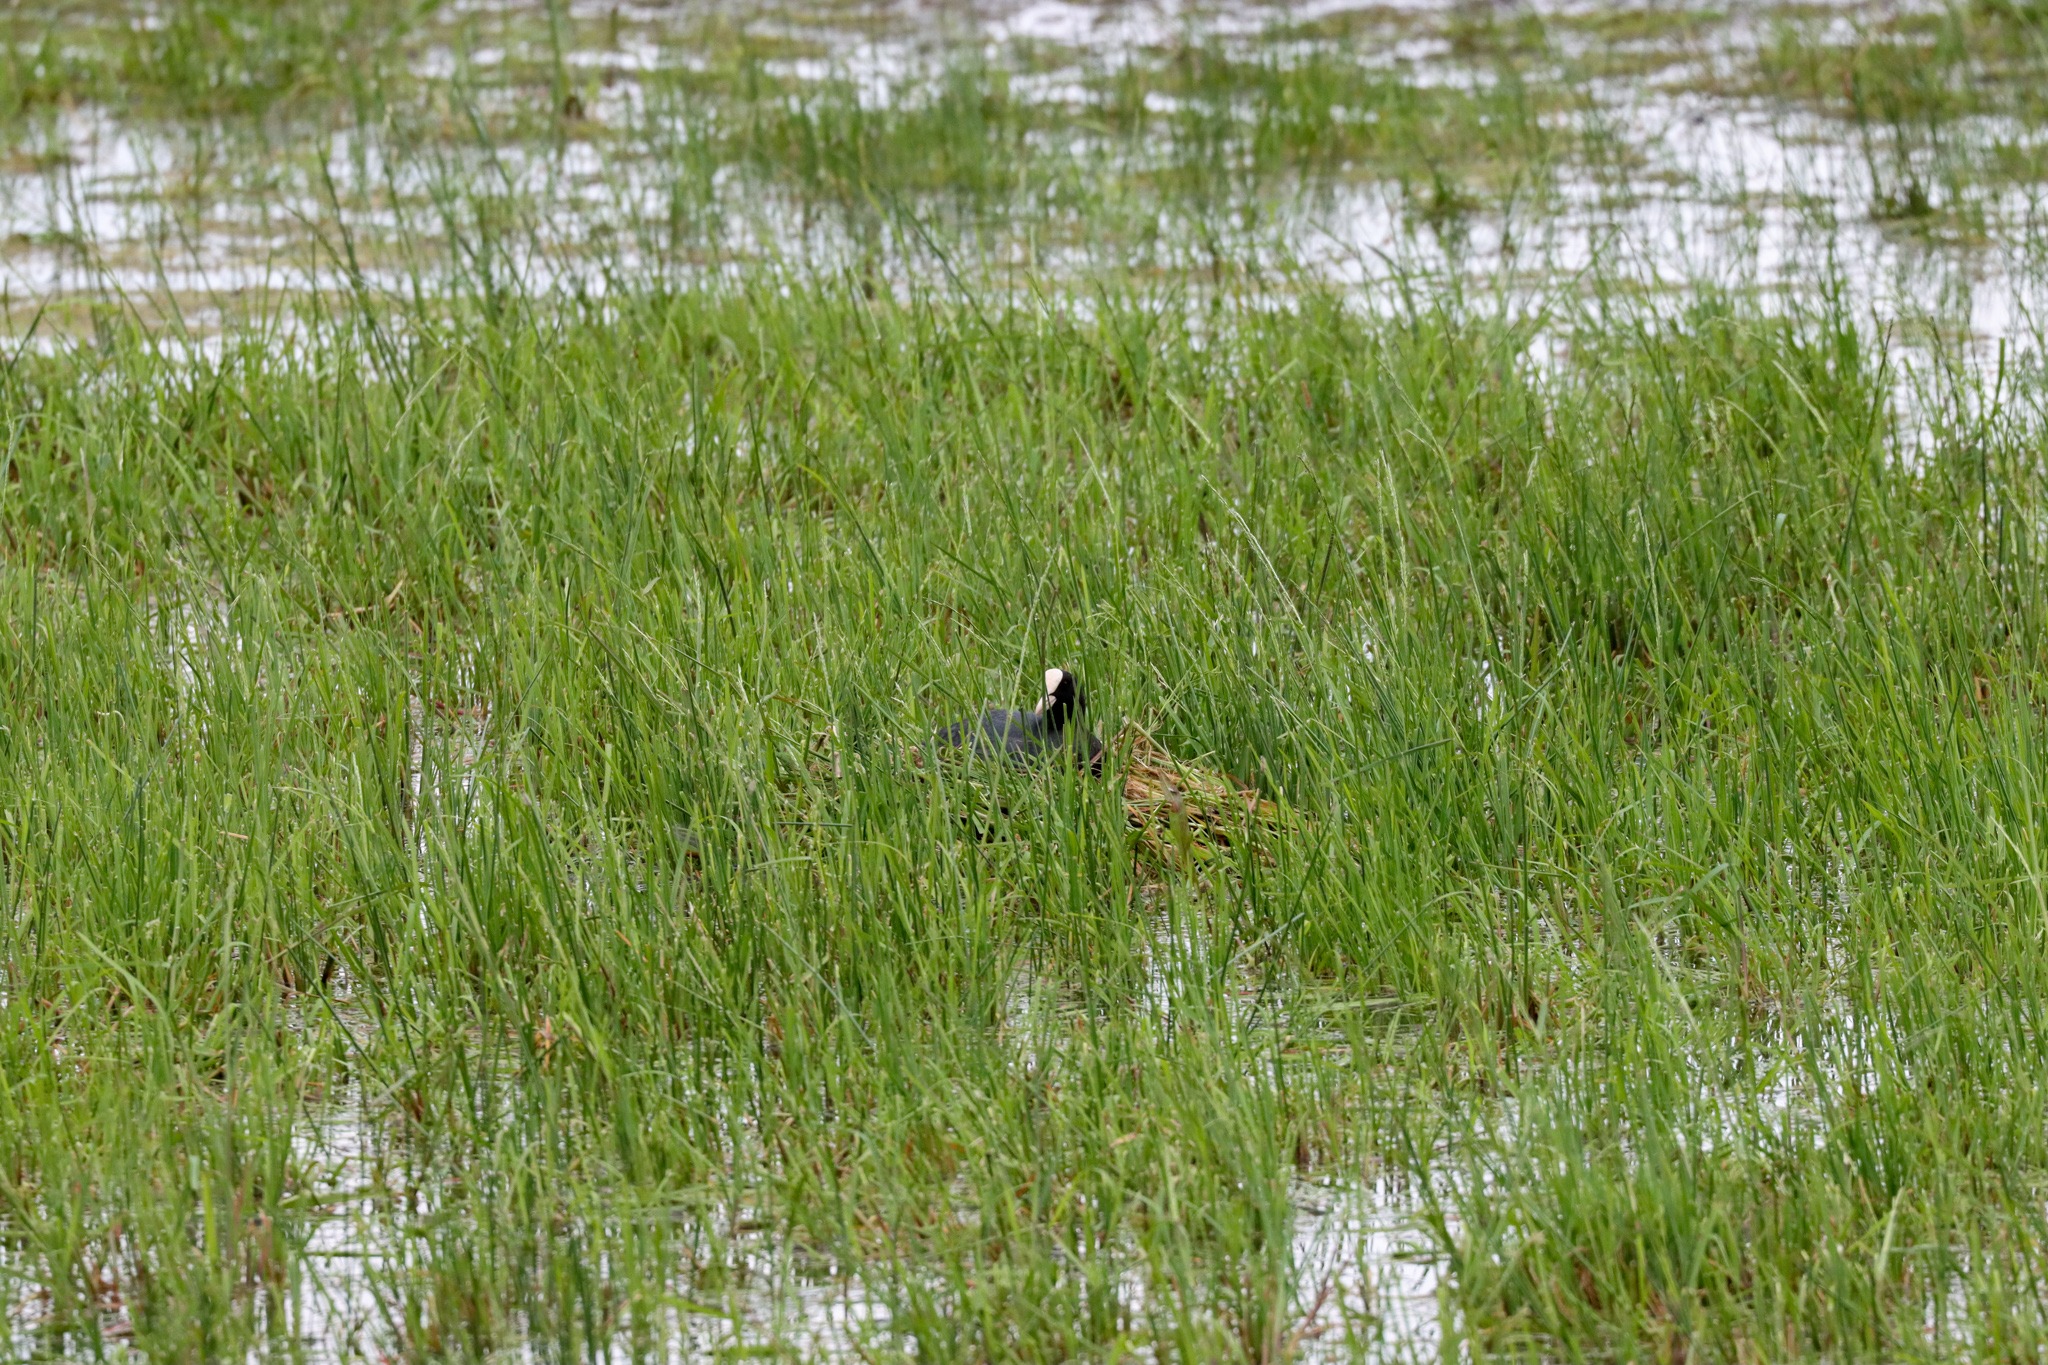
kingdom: Animalia
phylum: Chordata
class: Aves
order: Gruiformes
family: Rallidae
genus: Fulica
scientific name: Fulica atra
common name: Blishøne
